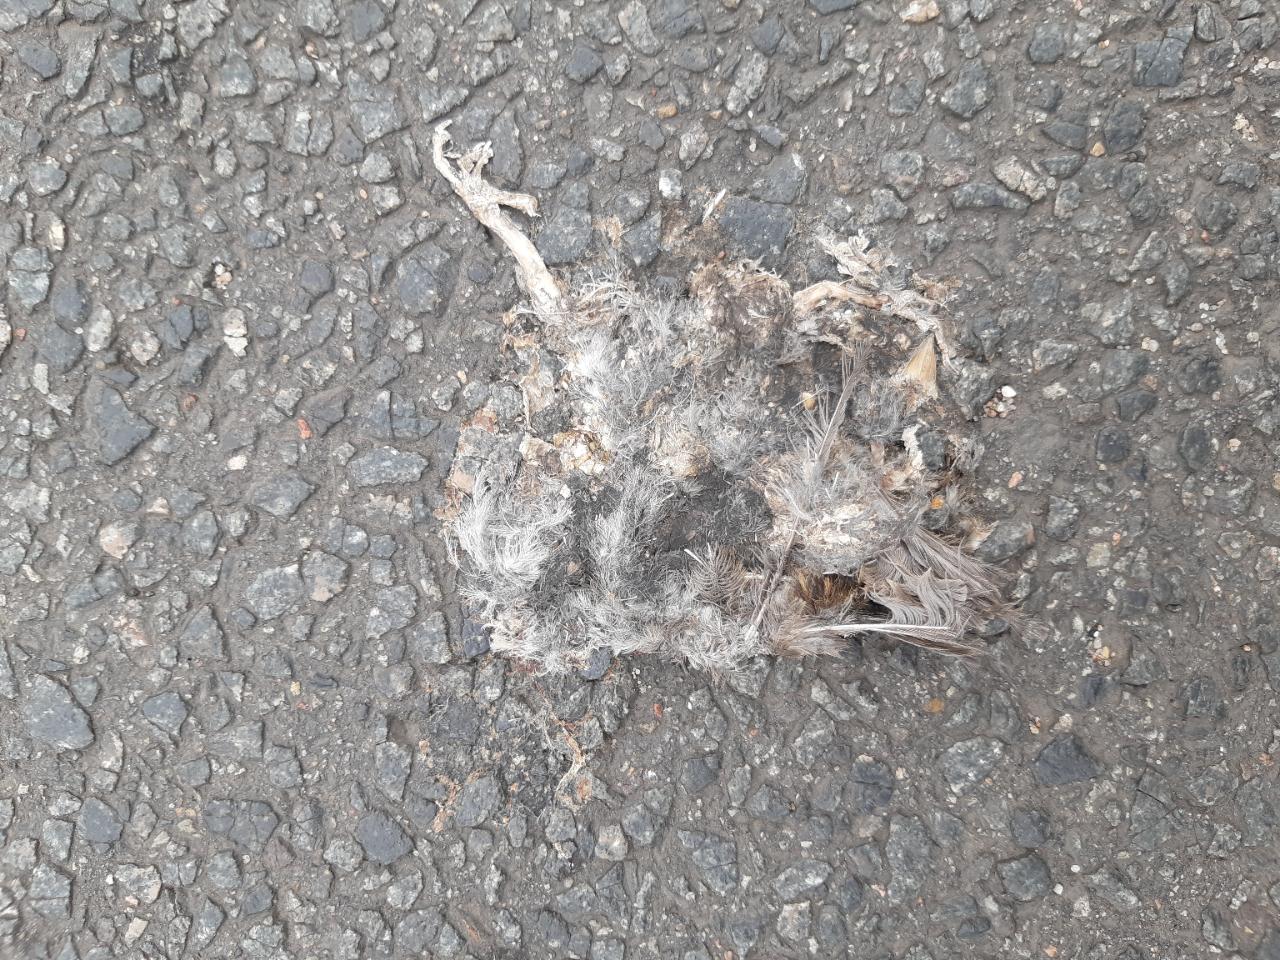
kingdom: Animalia
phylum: Chordata
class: Aves
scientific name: Aves
